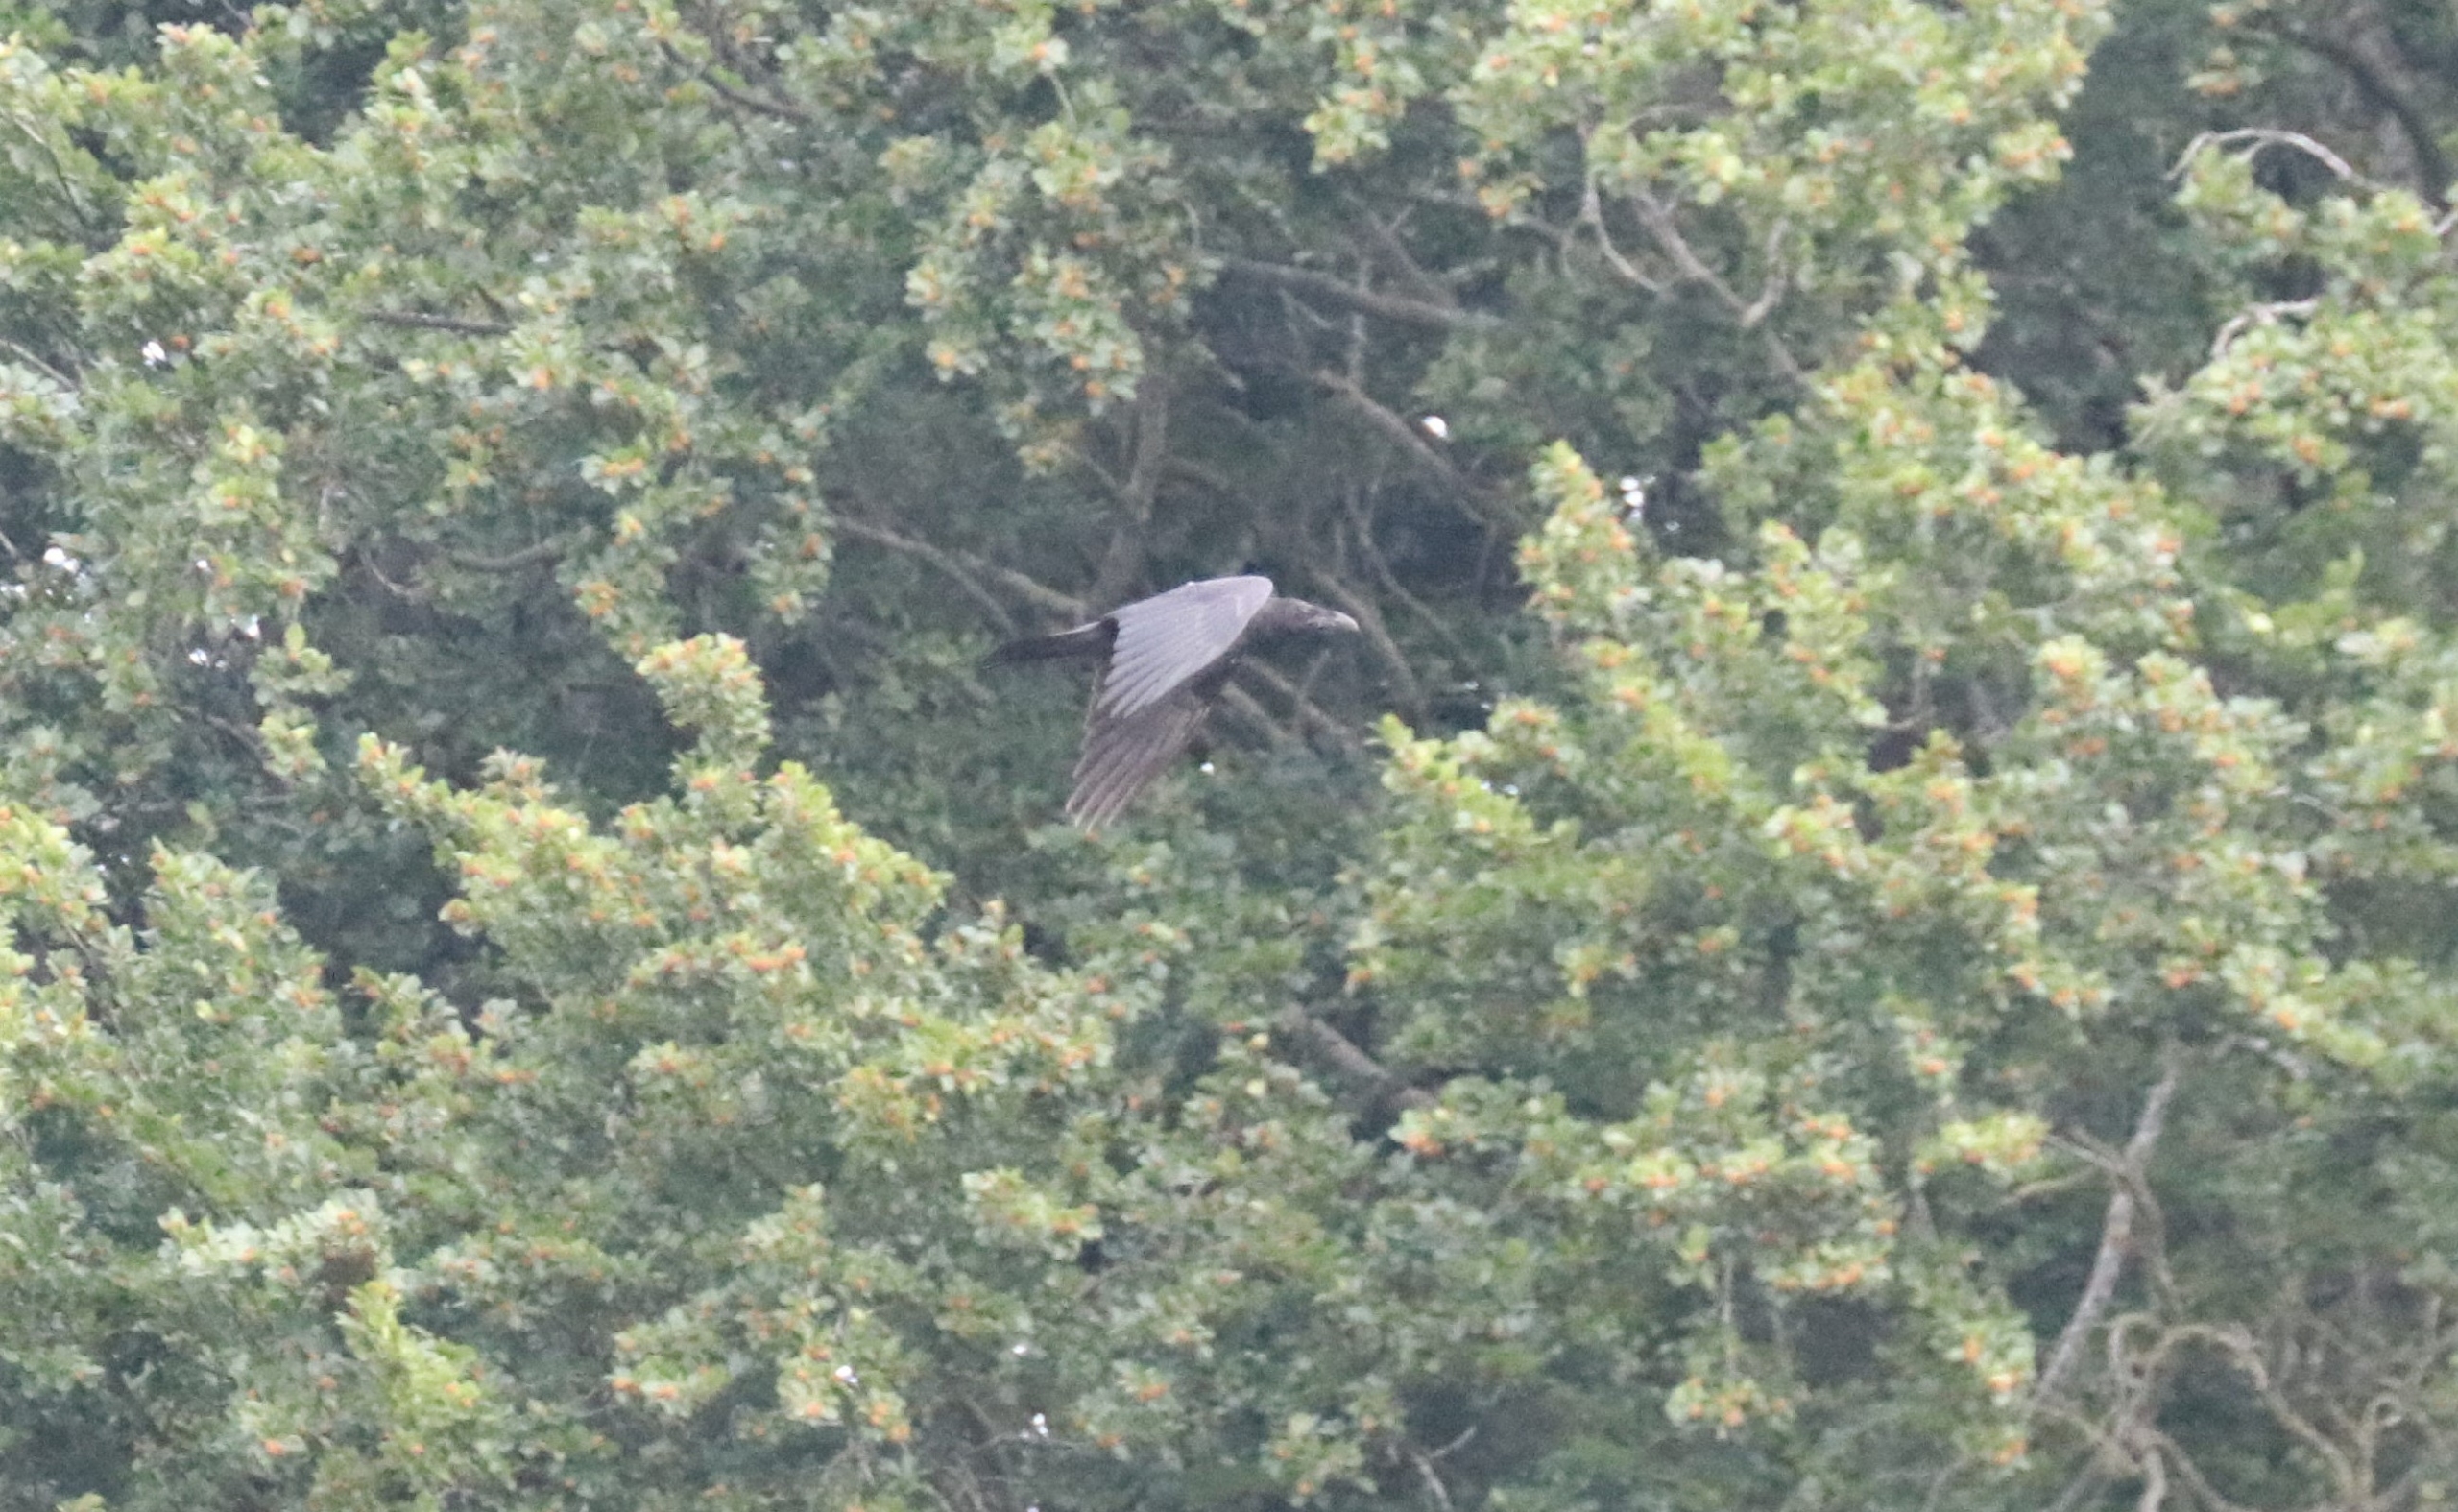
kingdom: Animalia
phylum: Chordata
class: Aves
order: Passeriformes
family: Corvidae
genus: Corvus
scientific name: Corvus corax
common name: Ravn
